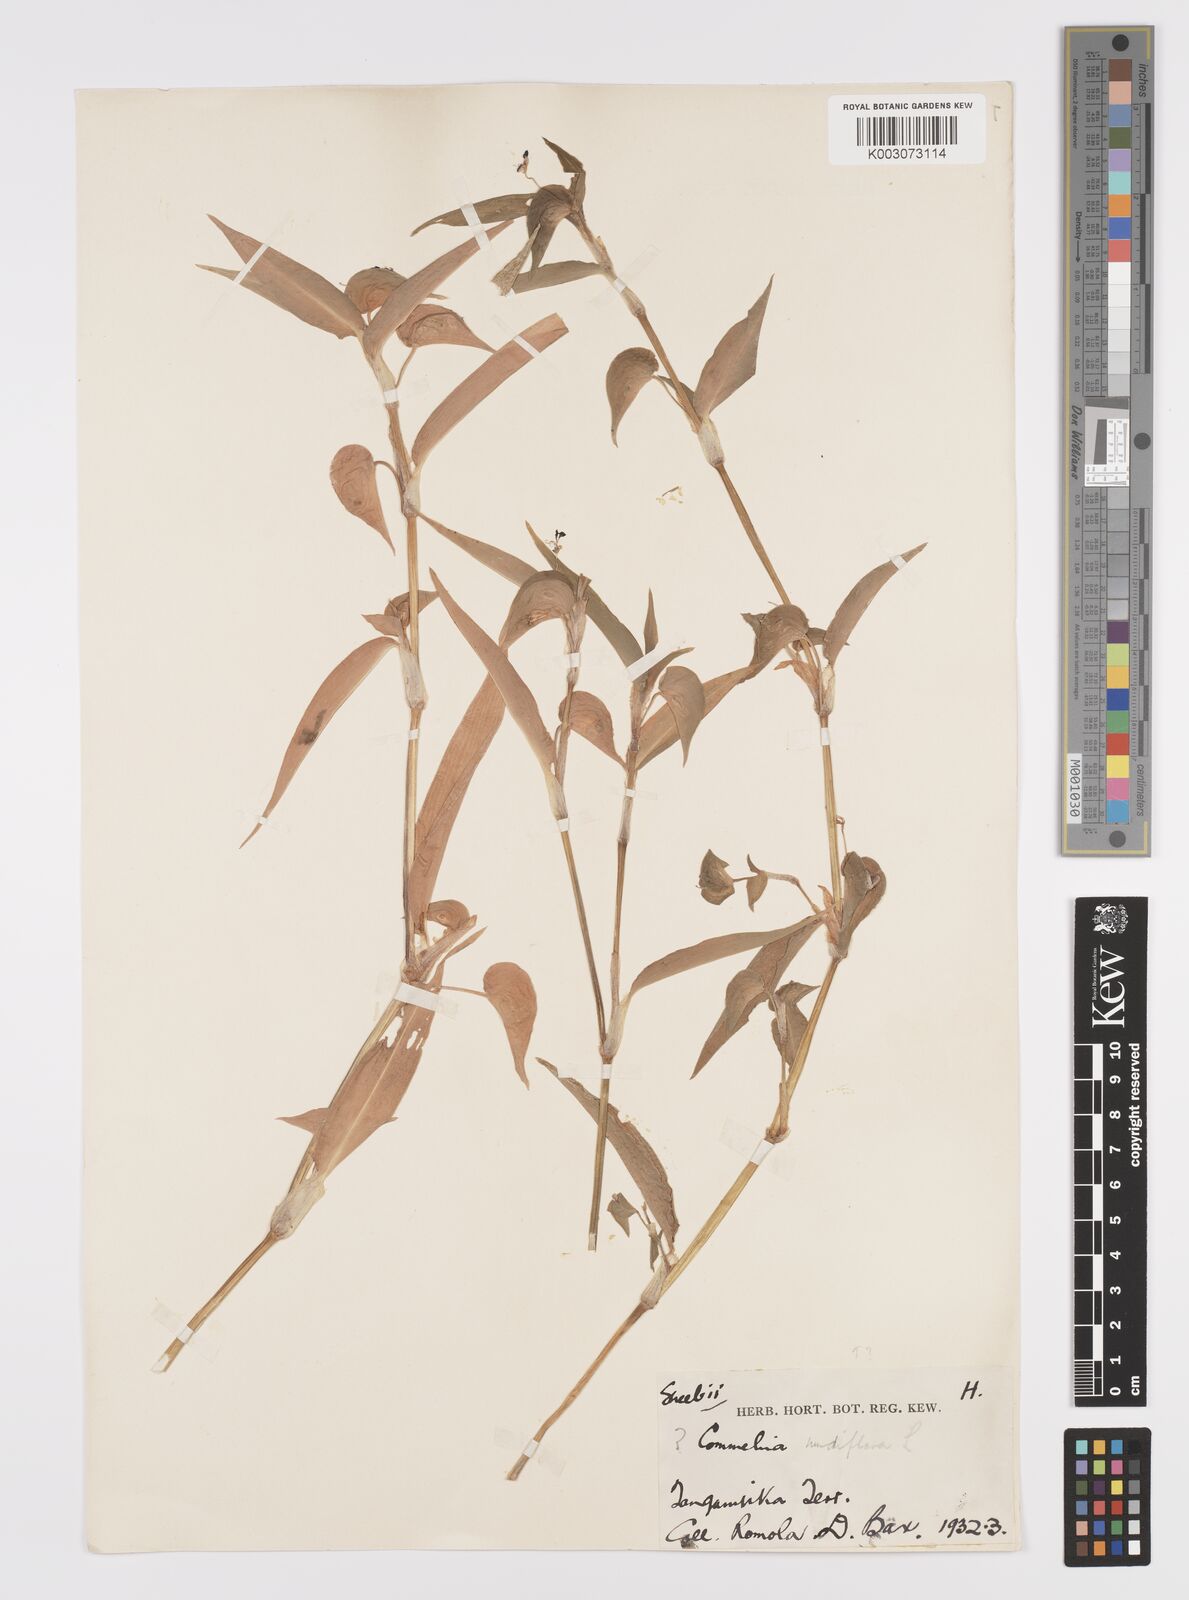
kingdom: Plantae
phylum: Tracheophyta
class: Liliopsida
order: Commelinales
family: Commelinaceae
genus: Commelina
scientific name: Commelina diffusa
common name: Climbing dayflower
